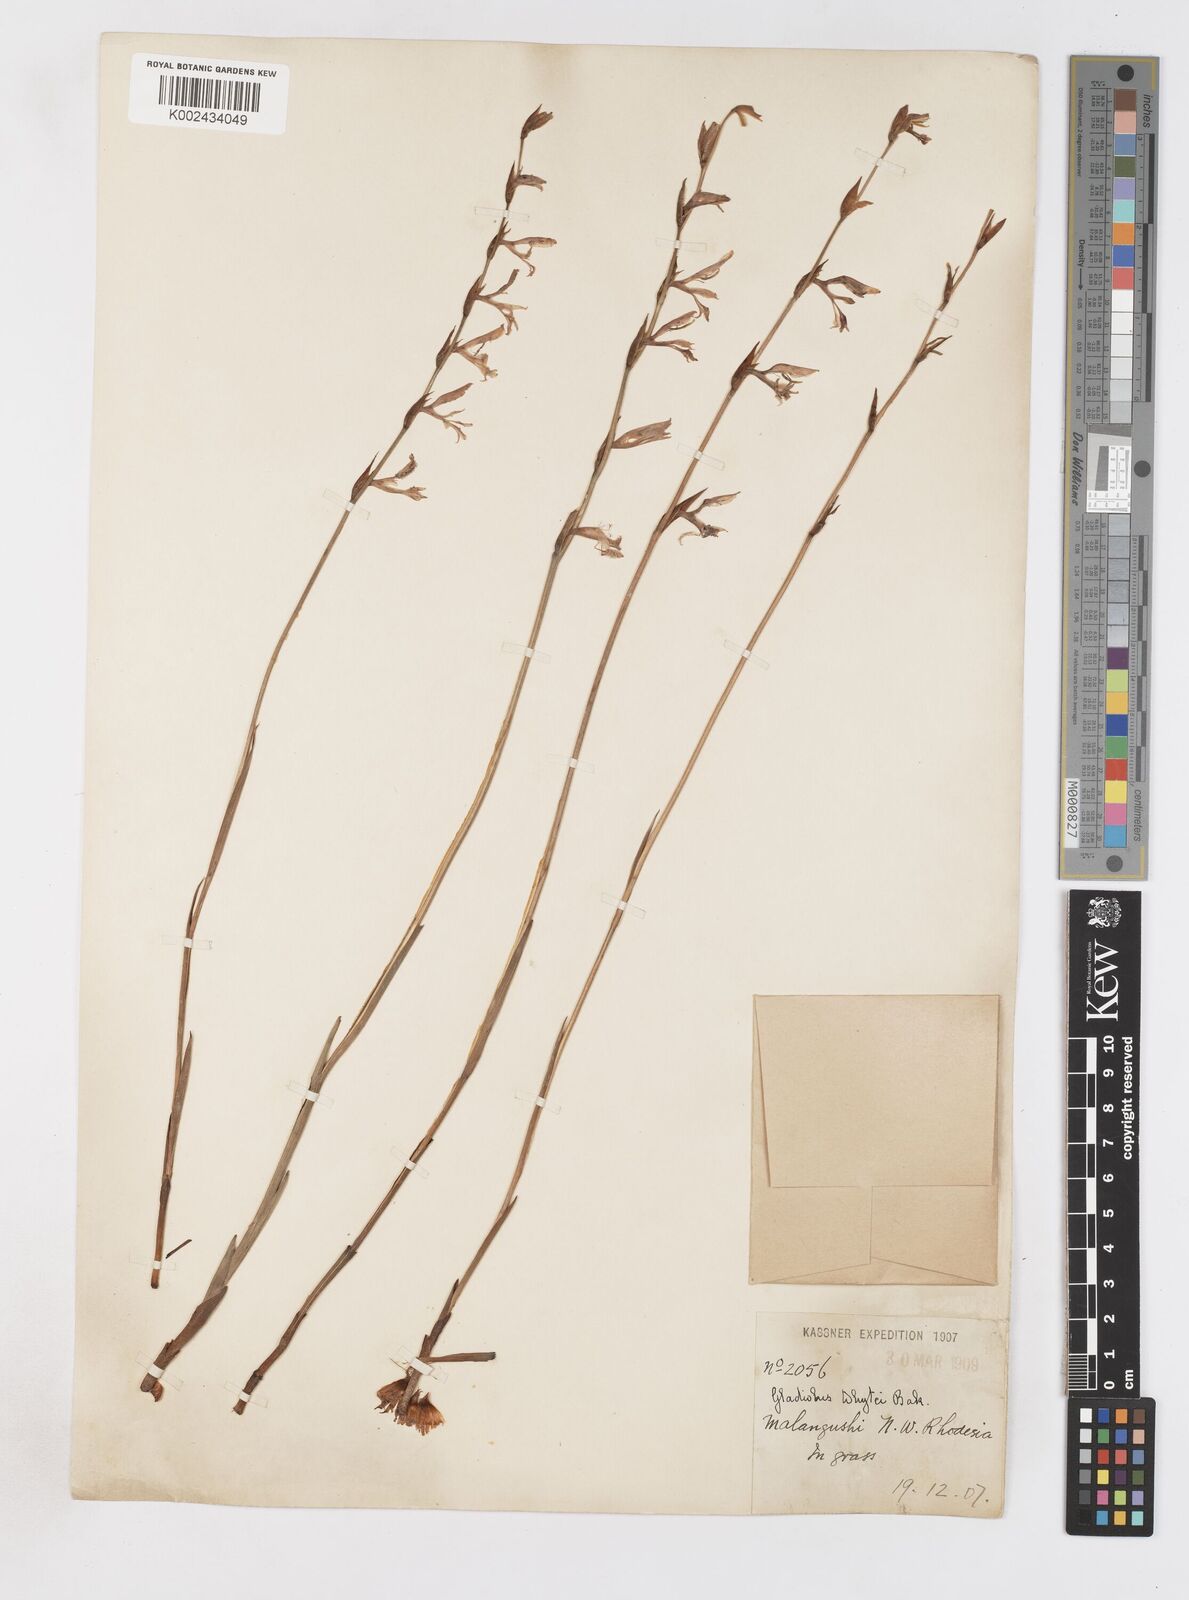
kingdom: Plantae
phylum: Tracheophyta
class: Liliopsida
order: Asparagales
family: Iridaceae
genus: Gladiolus
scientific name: Gladiolus atropurpureus
